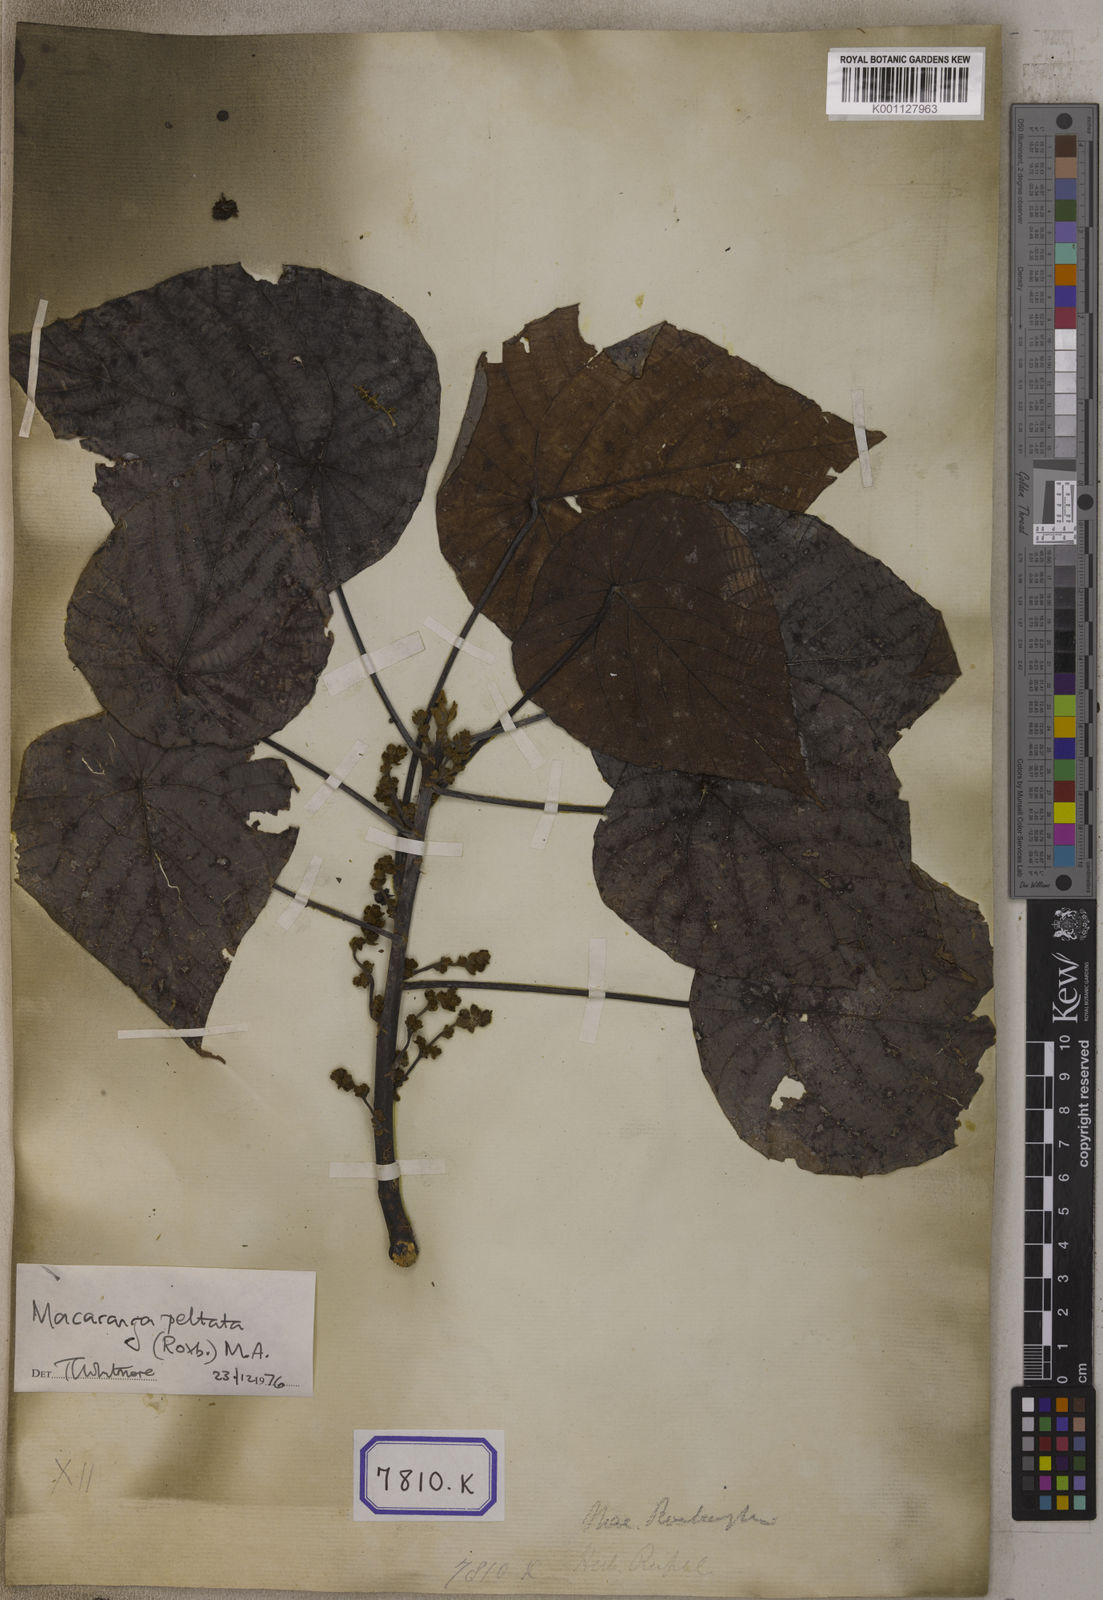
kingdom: Plantae
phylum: Tracheophyta
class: Magnoliopsida
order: Malpighiales
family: Euphorbiaceae
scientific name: Euphorbiaceae
